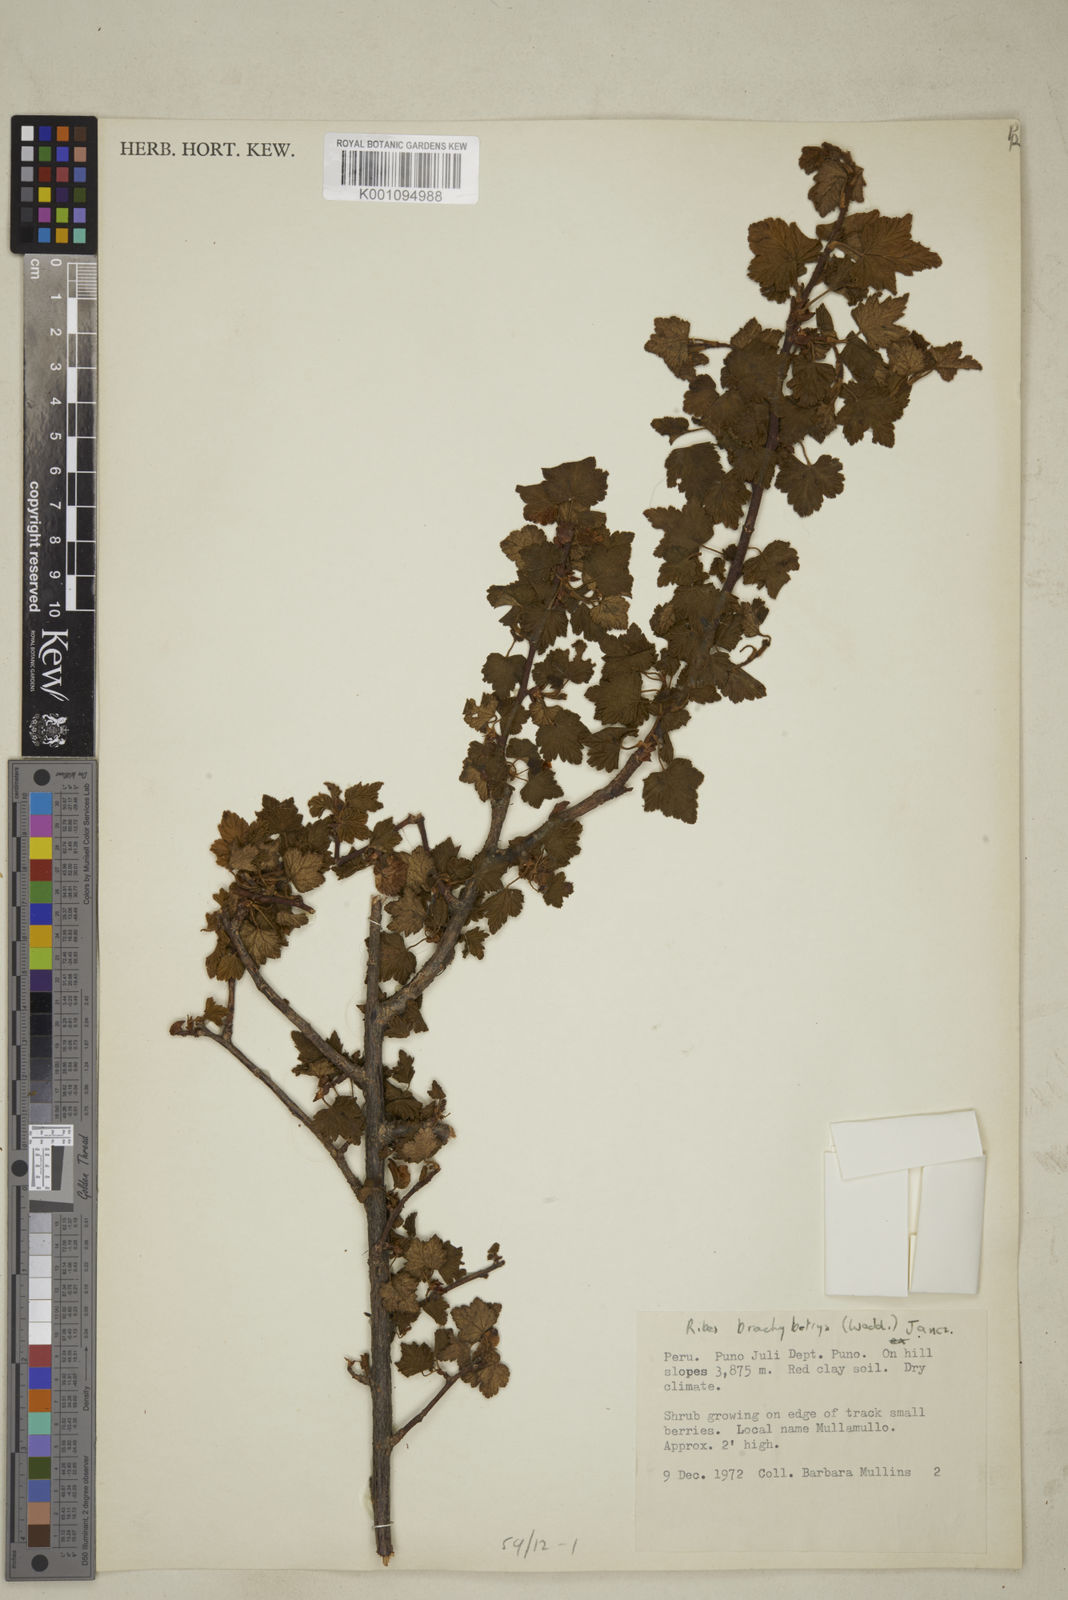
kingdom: Plantae
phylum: Tracheophyta
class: Magnoliopsida
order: Saxifragales
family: Grossulariaceae
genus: Ribes
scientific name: Ribes brachybotrys
